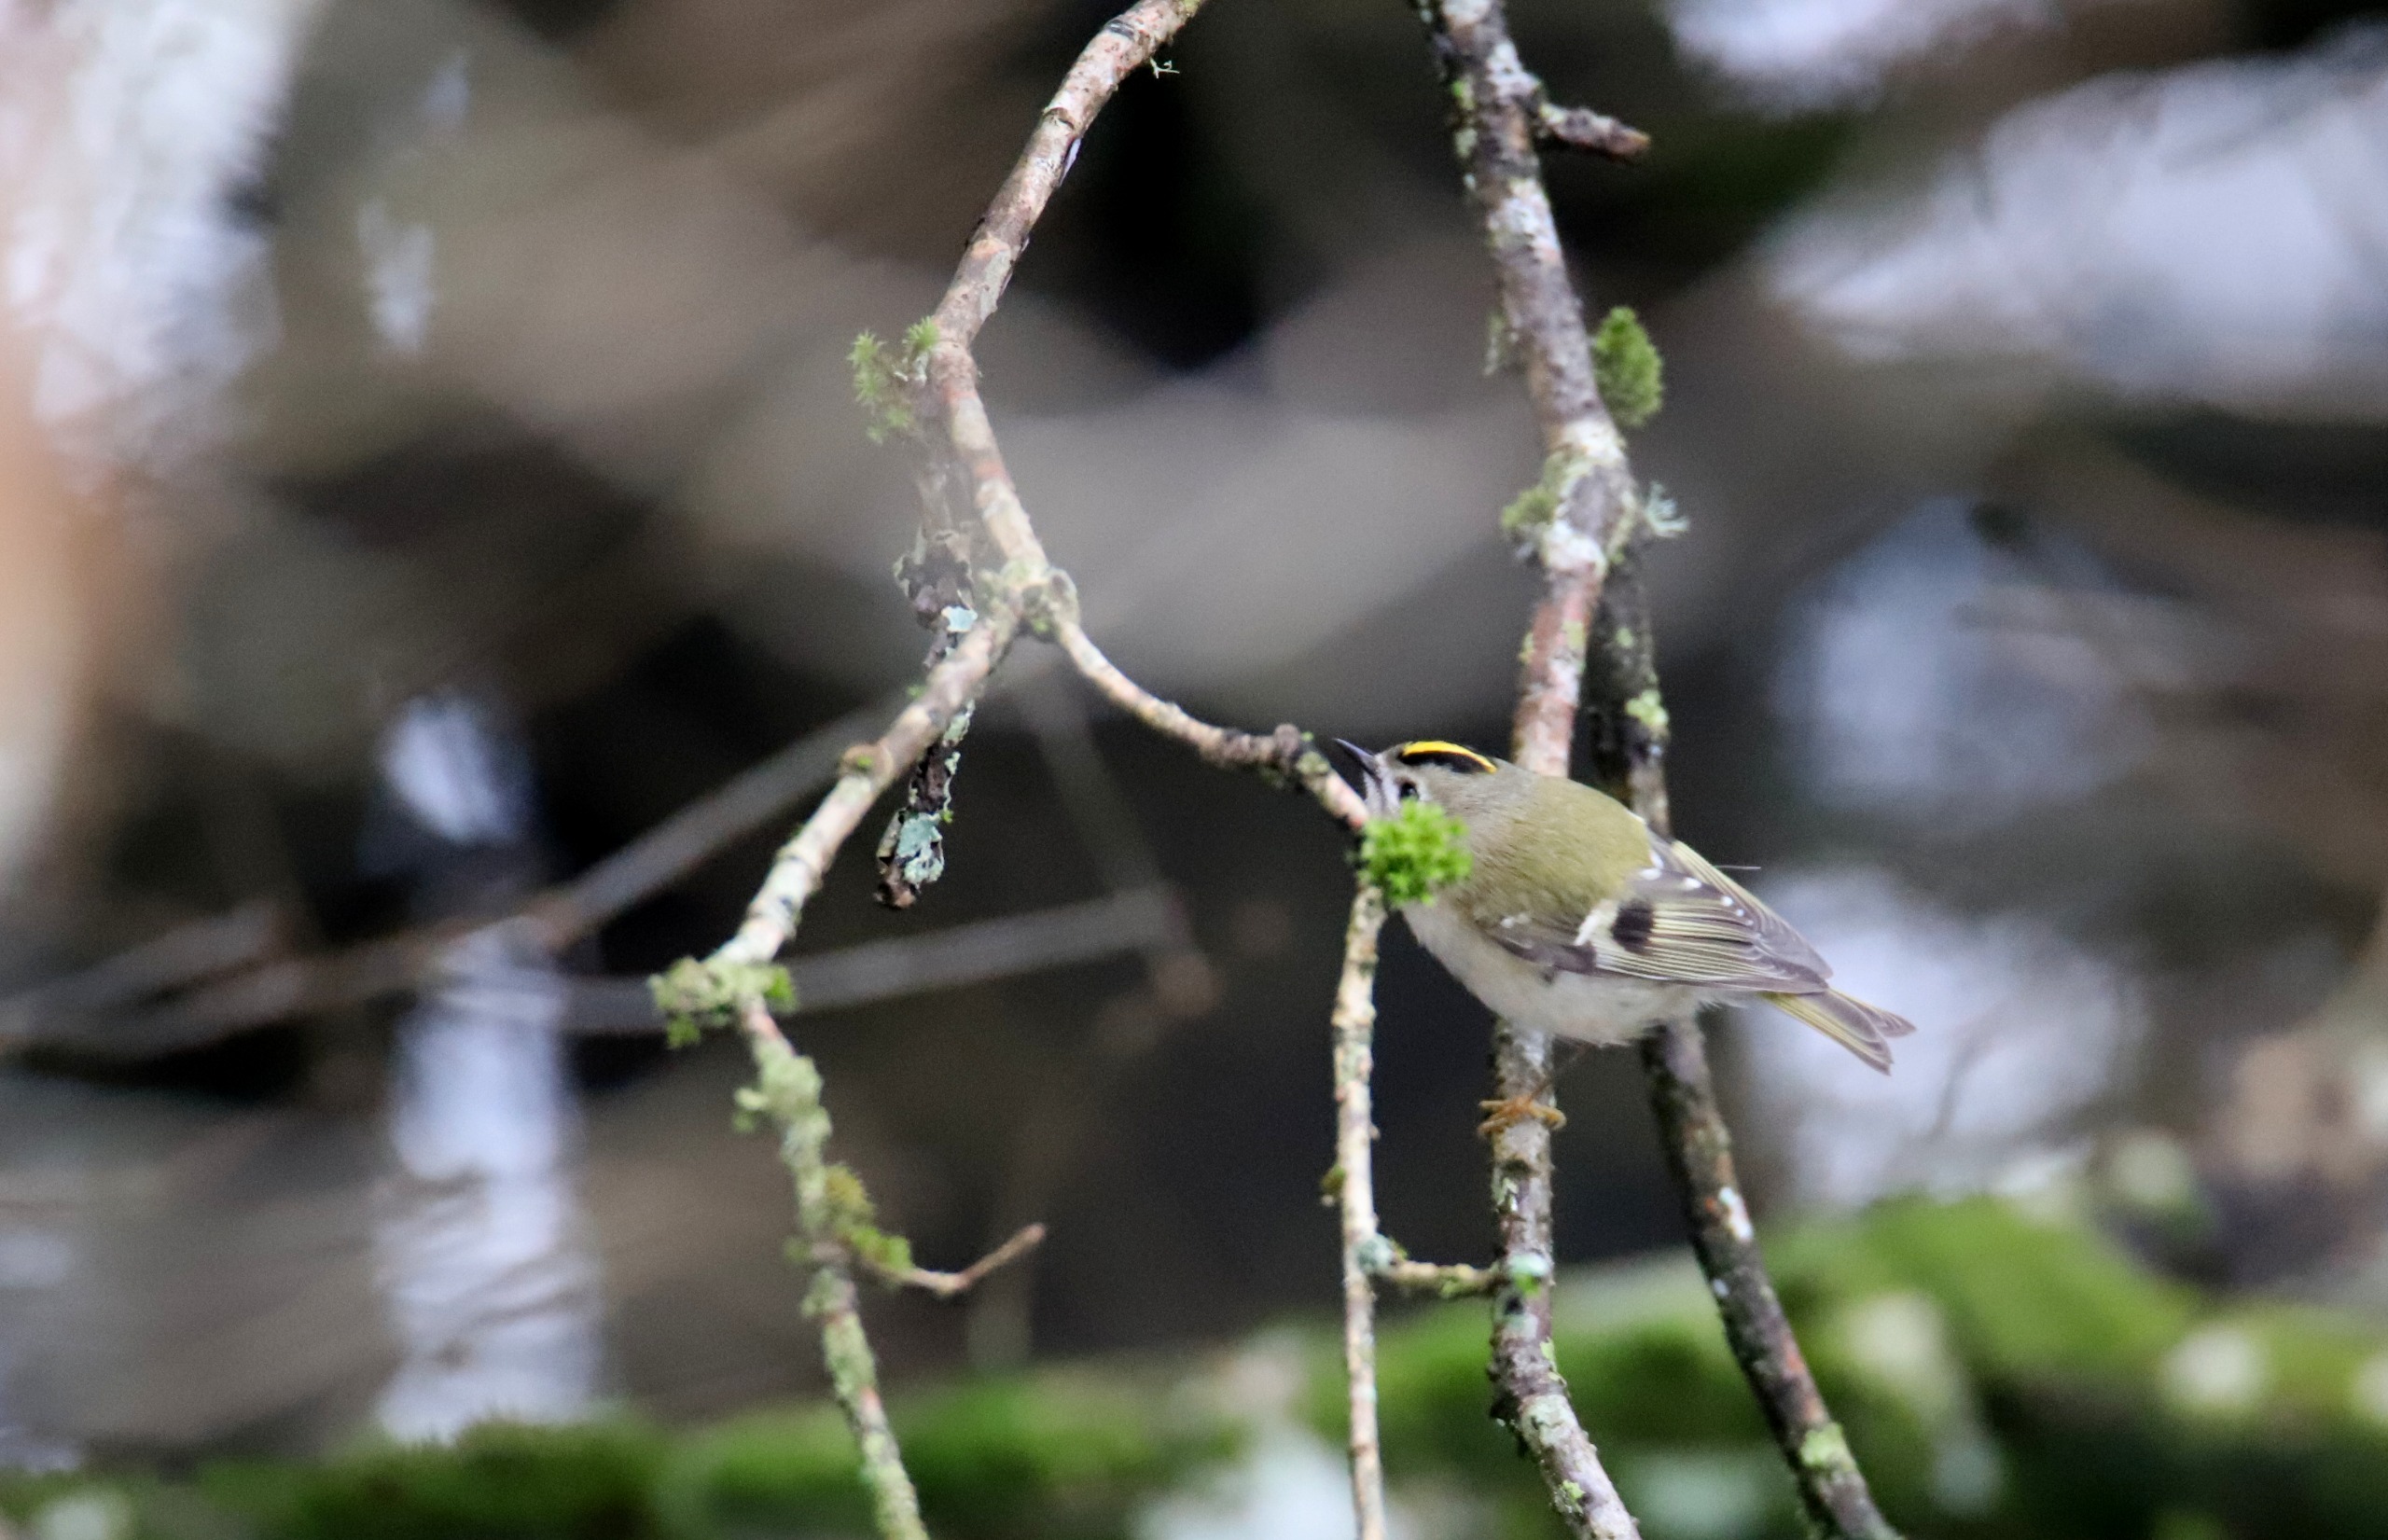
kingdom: Animalia
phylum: Chordata
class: Aves
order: Passeriformes
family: Regulidae
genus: Regulus
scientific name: Regulus regulus
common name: Fuglekonge
